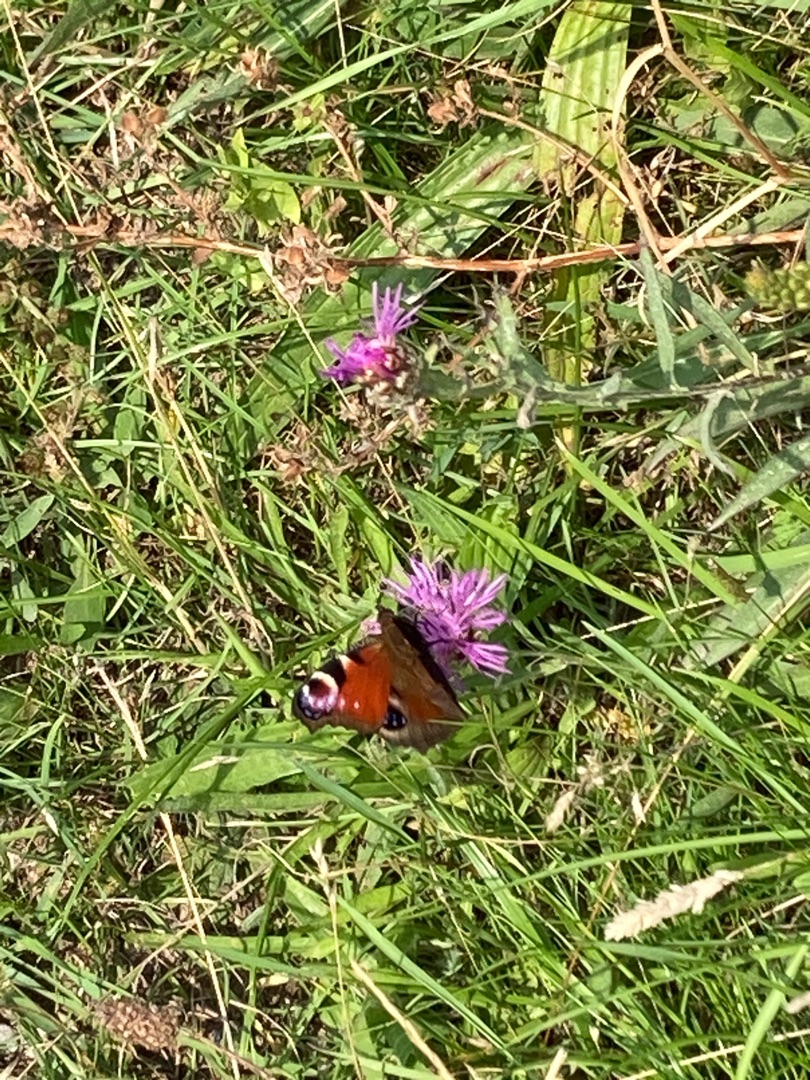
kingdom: Animalia
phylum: Arthropoda
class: Insecta
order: Lepidoptera
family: Nymphalidae
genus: Aglais
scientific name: Aglais io
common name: Dagpåfugleøje
